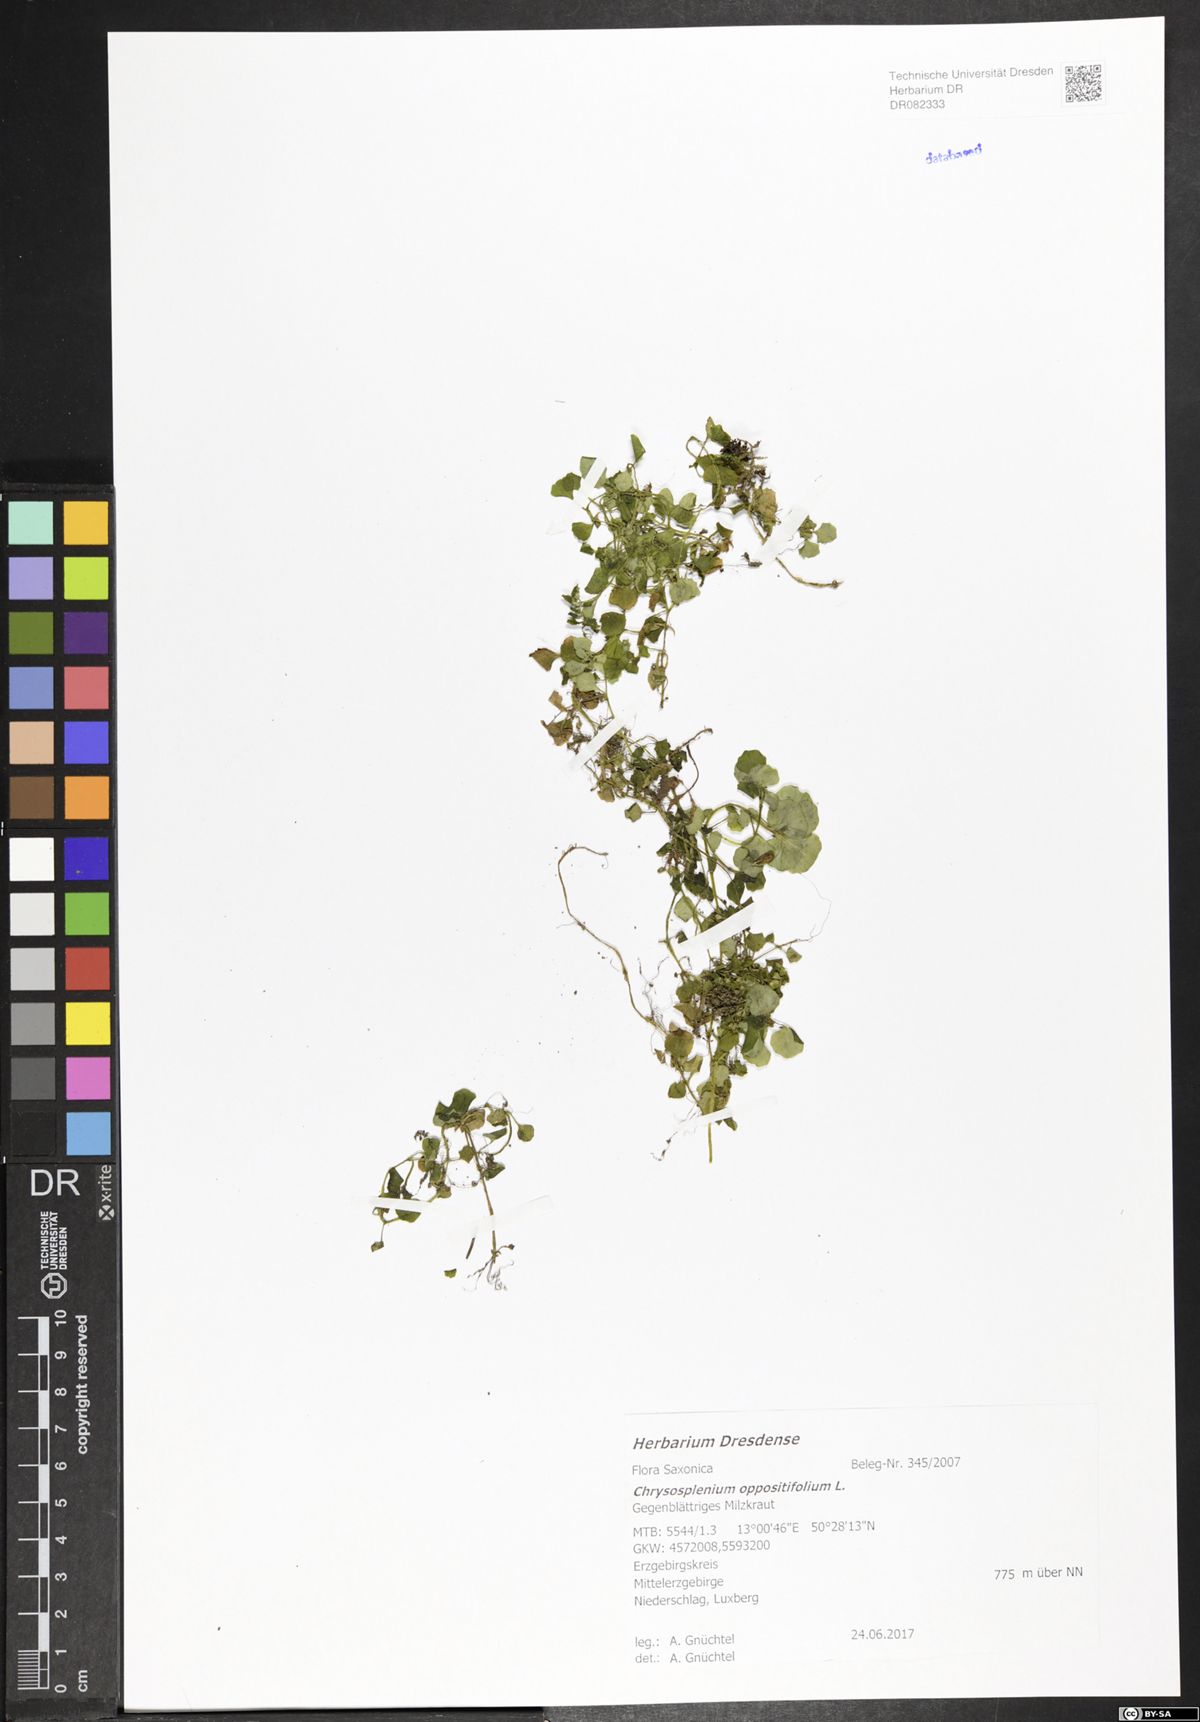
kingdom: Plantae
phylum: Tracheophyta
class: Magnoliopsida
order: Saxifragales
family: Saxifragaceae
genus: Chrysosplenium
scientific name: Chrysosplenium oppositifolium
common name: Opposite-leaved golden-saxifrage
